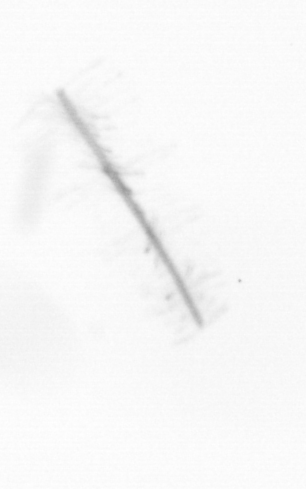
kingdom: Chromista
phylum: Ochrophyta
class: Bacillariophyceae
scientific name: Bacillariophyceae
